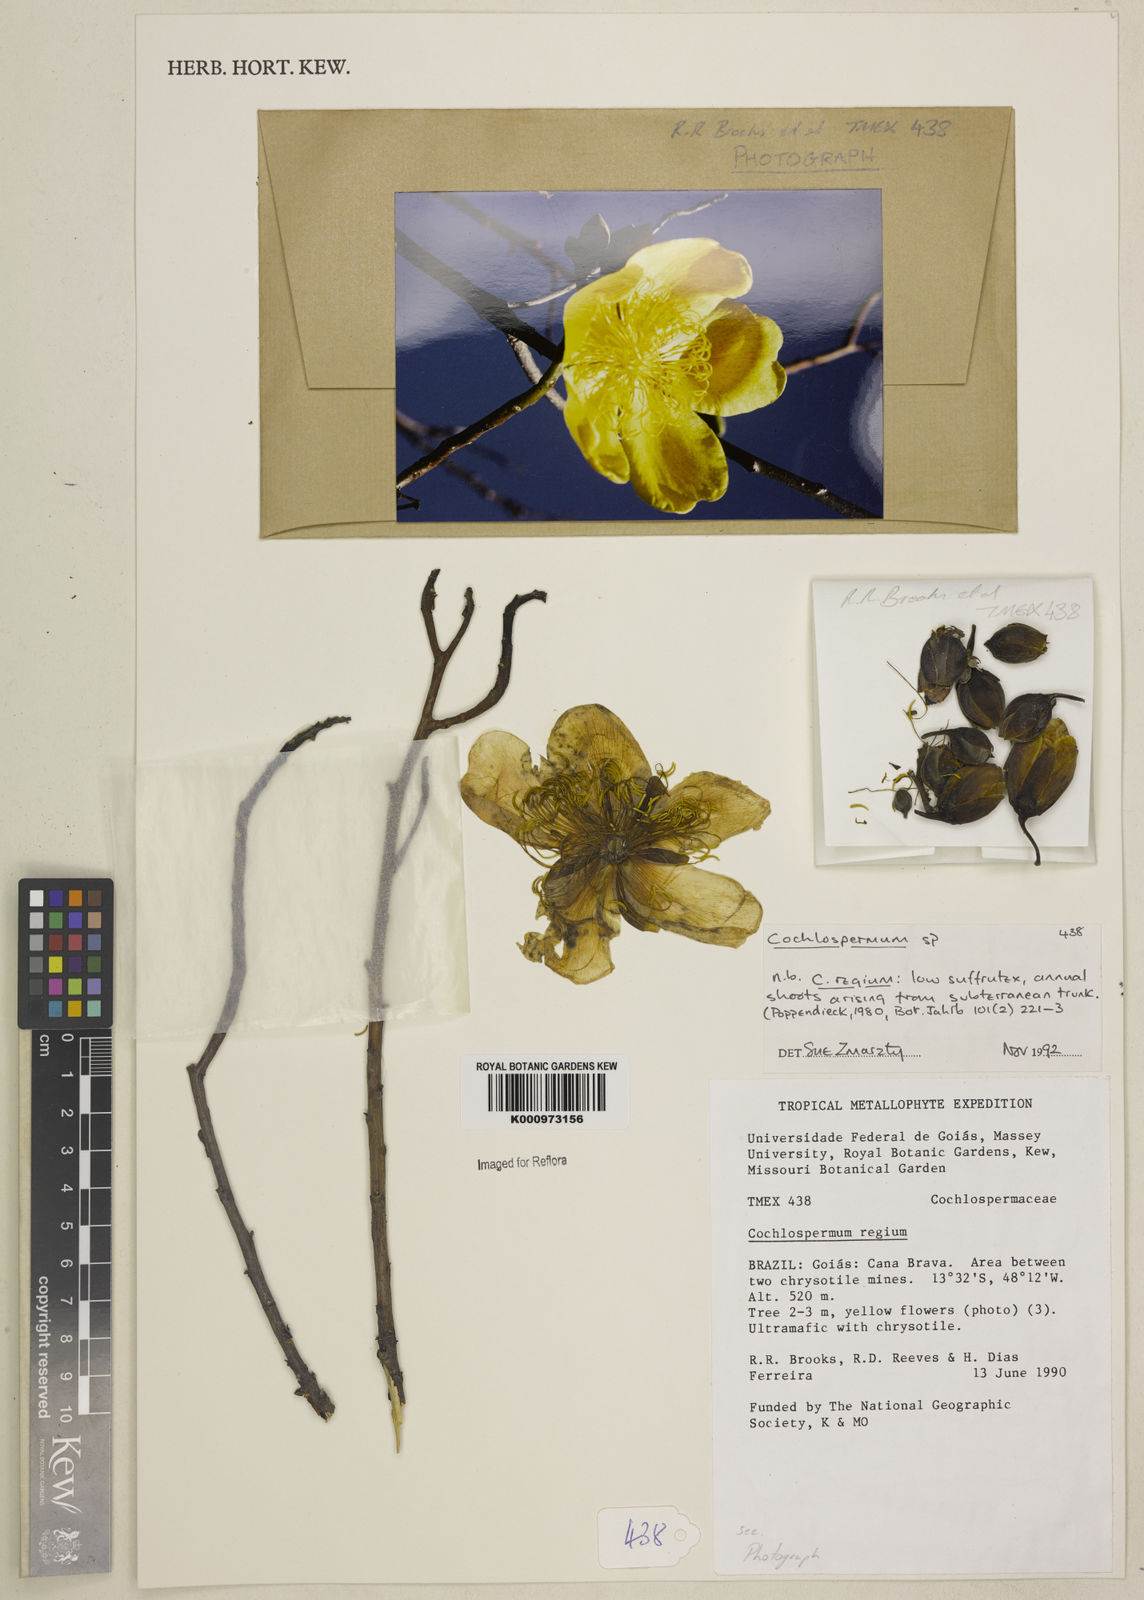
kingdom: Plantae
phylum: Tracheophyta
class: Magnoliopsida
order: Malvales
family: Cochlospermaceae
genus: Cochlospermum
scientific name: Cochlospermum
